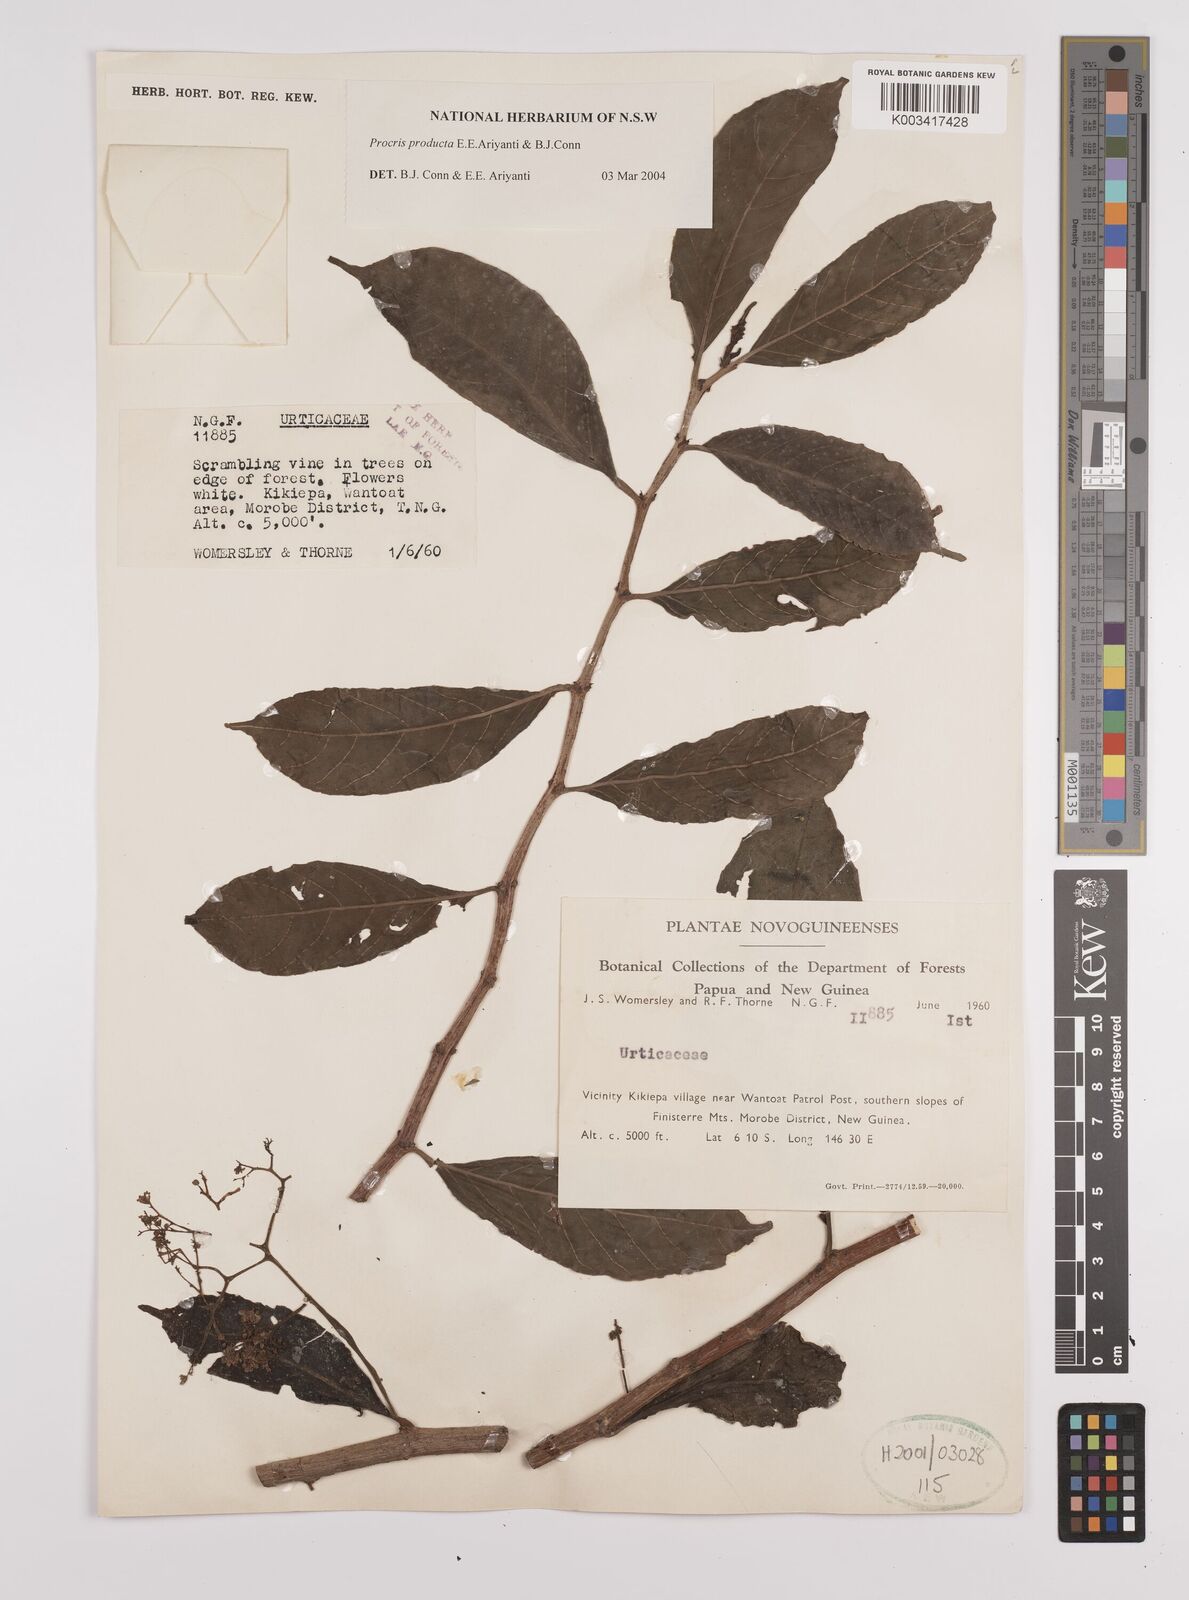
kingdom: Plantae
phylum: Tracheophyta
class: Magnoliopsida
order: Rosales
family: Urticaceae
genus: Procris
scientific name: Procris
